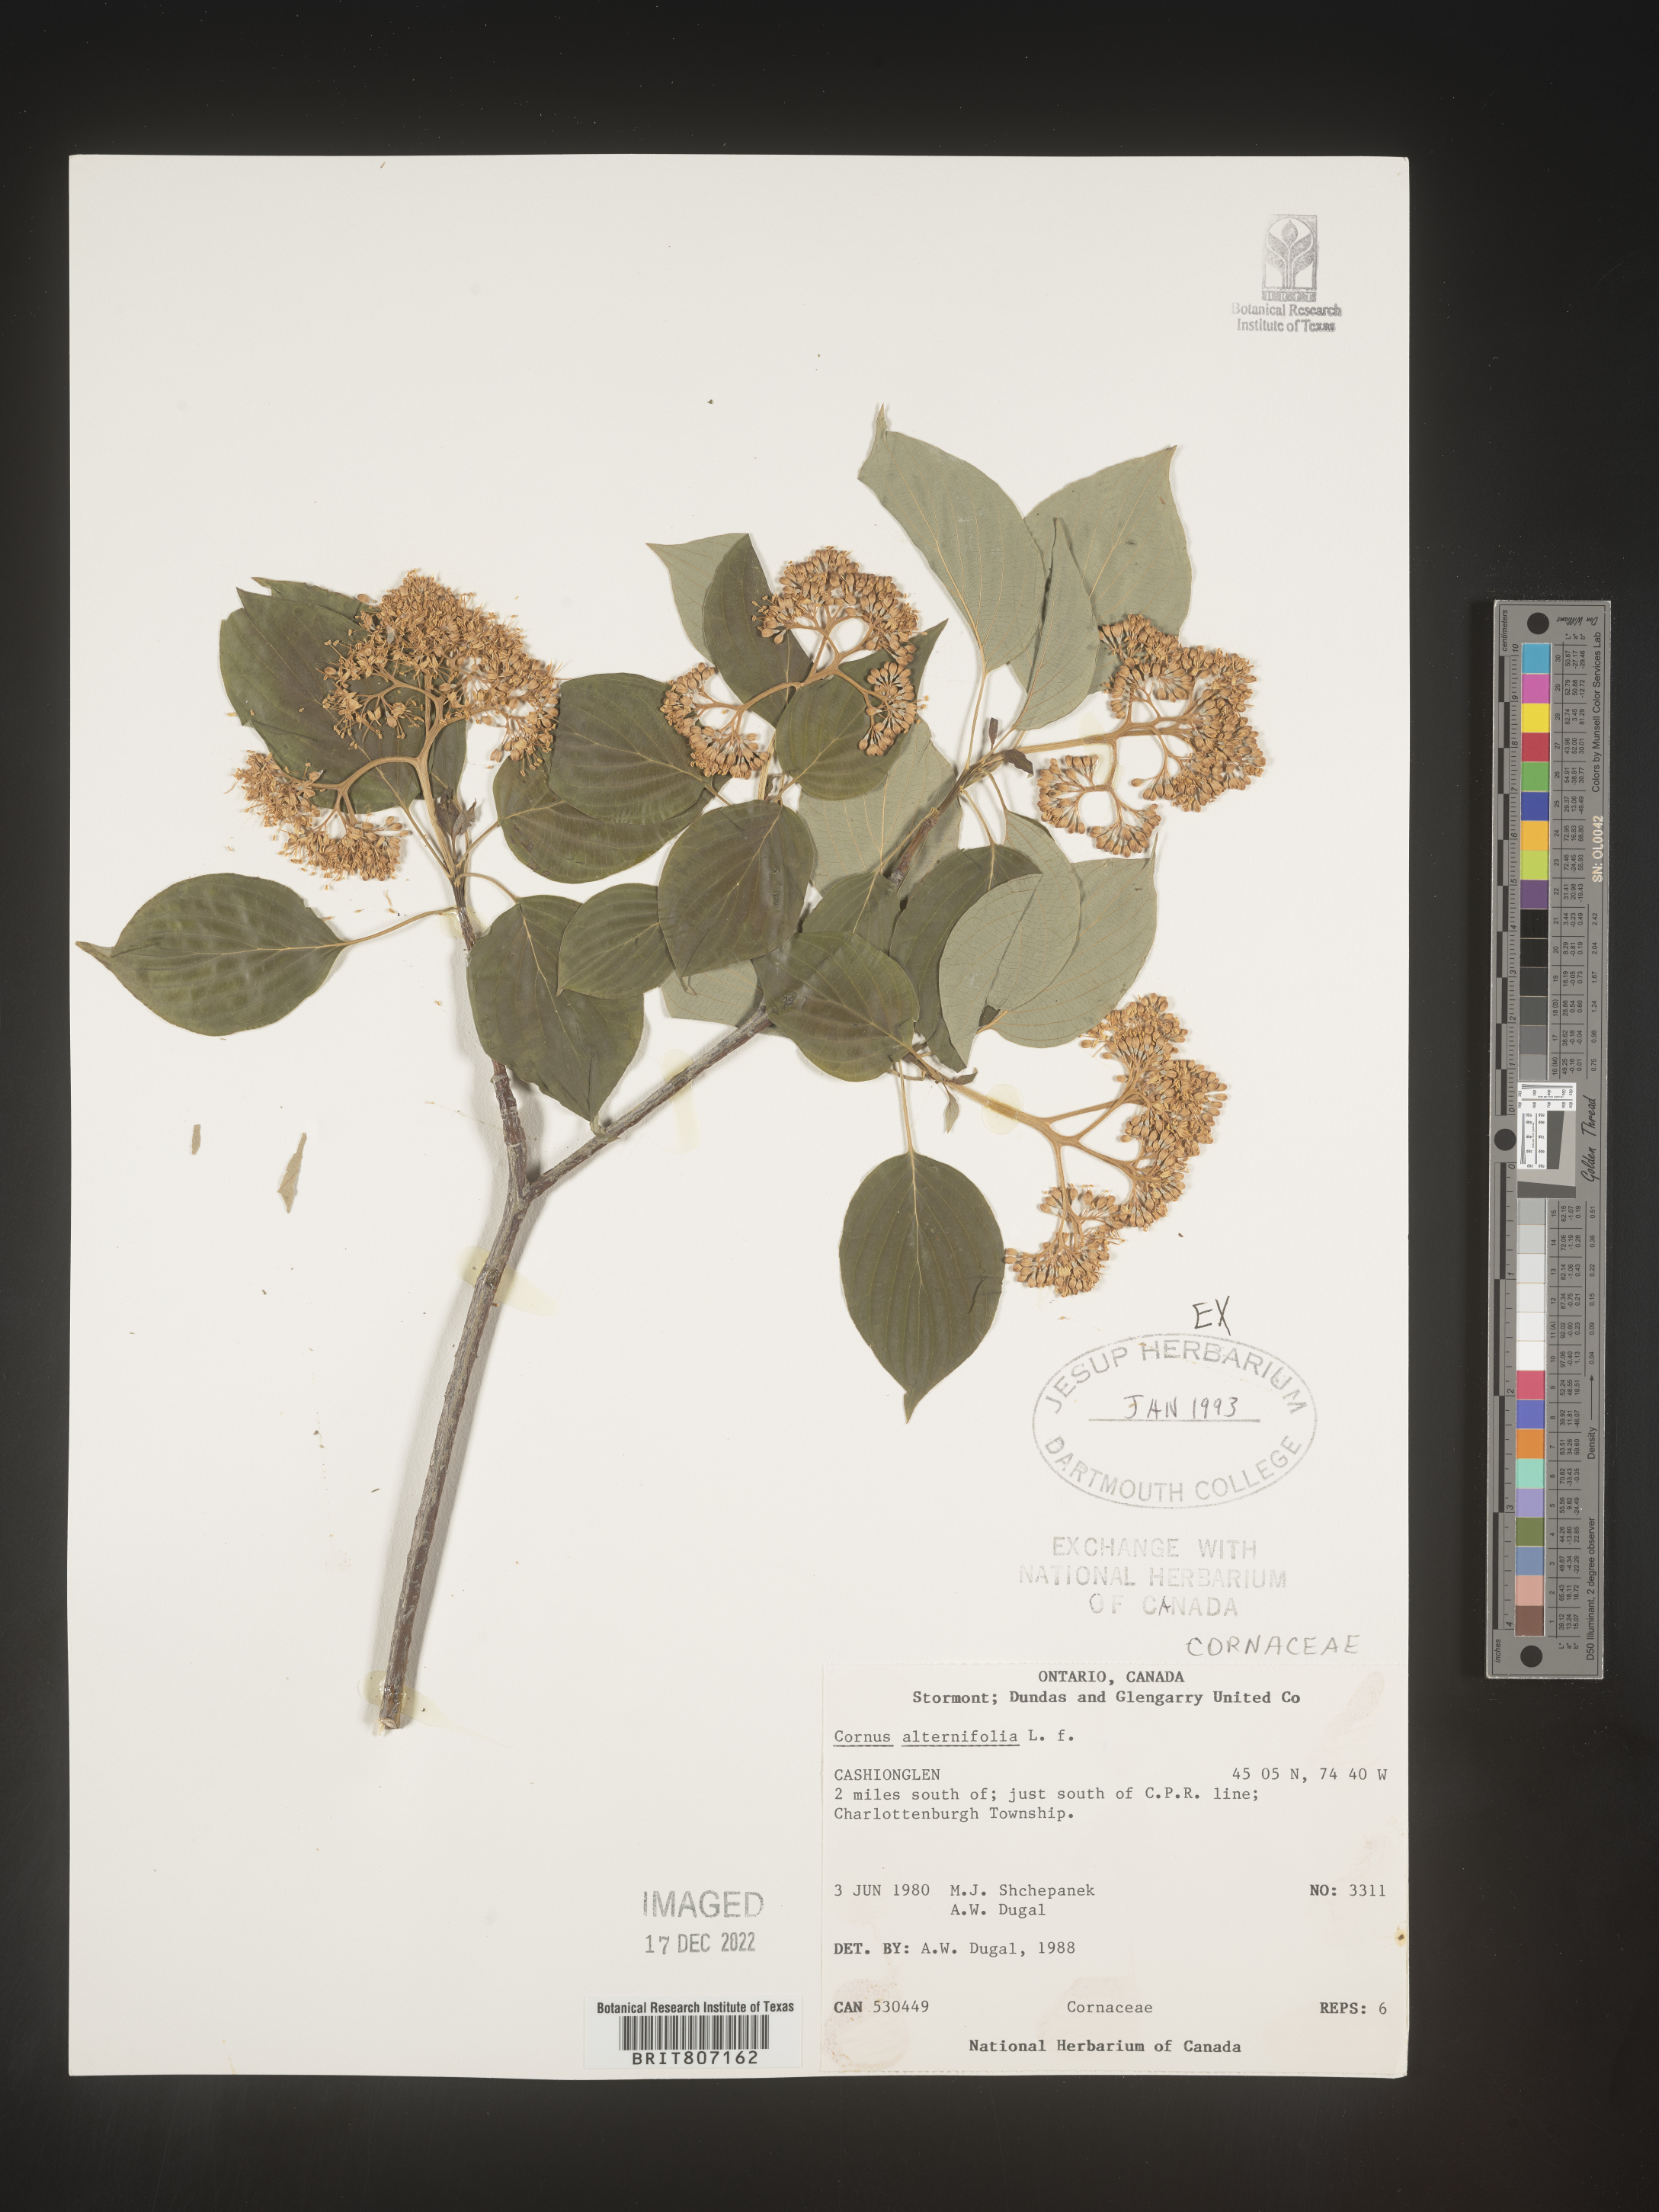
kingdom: Plantae
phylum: Tracheophyta
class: Magnoliopsida
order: Cornales
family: Cornaceae
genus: Cornus
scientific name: Cornus alternifolia
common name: Pagoda dogwood
